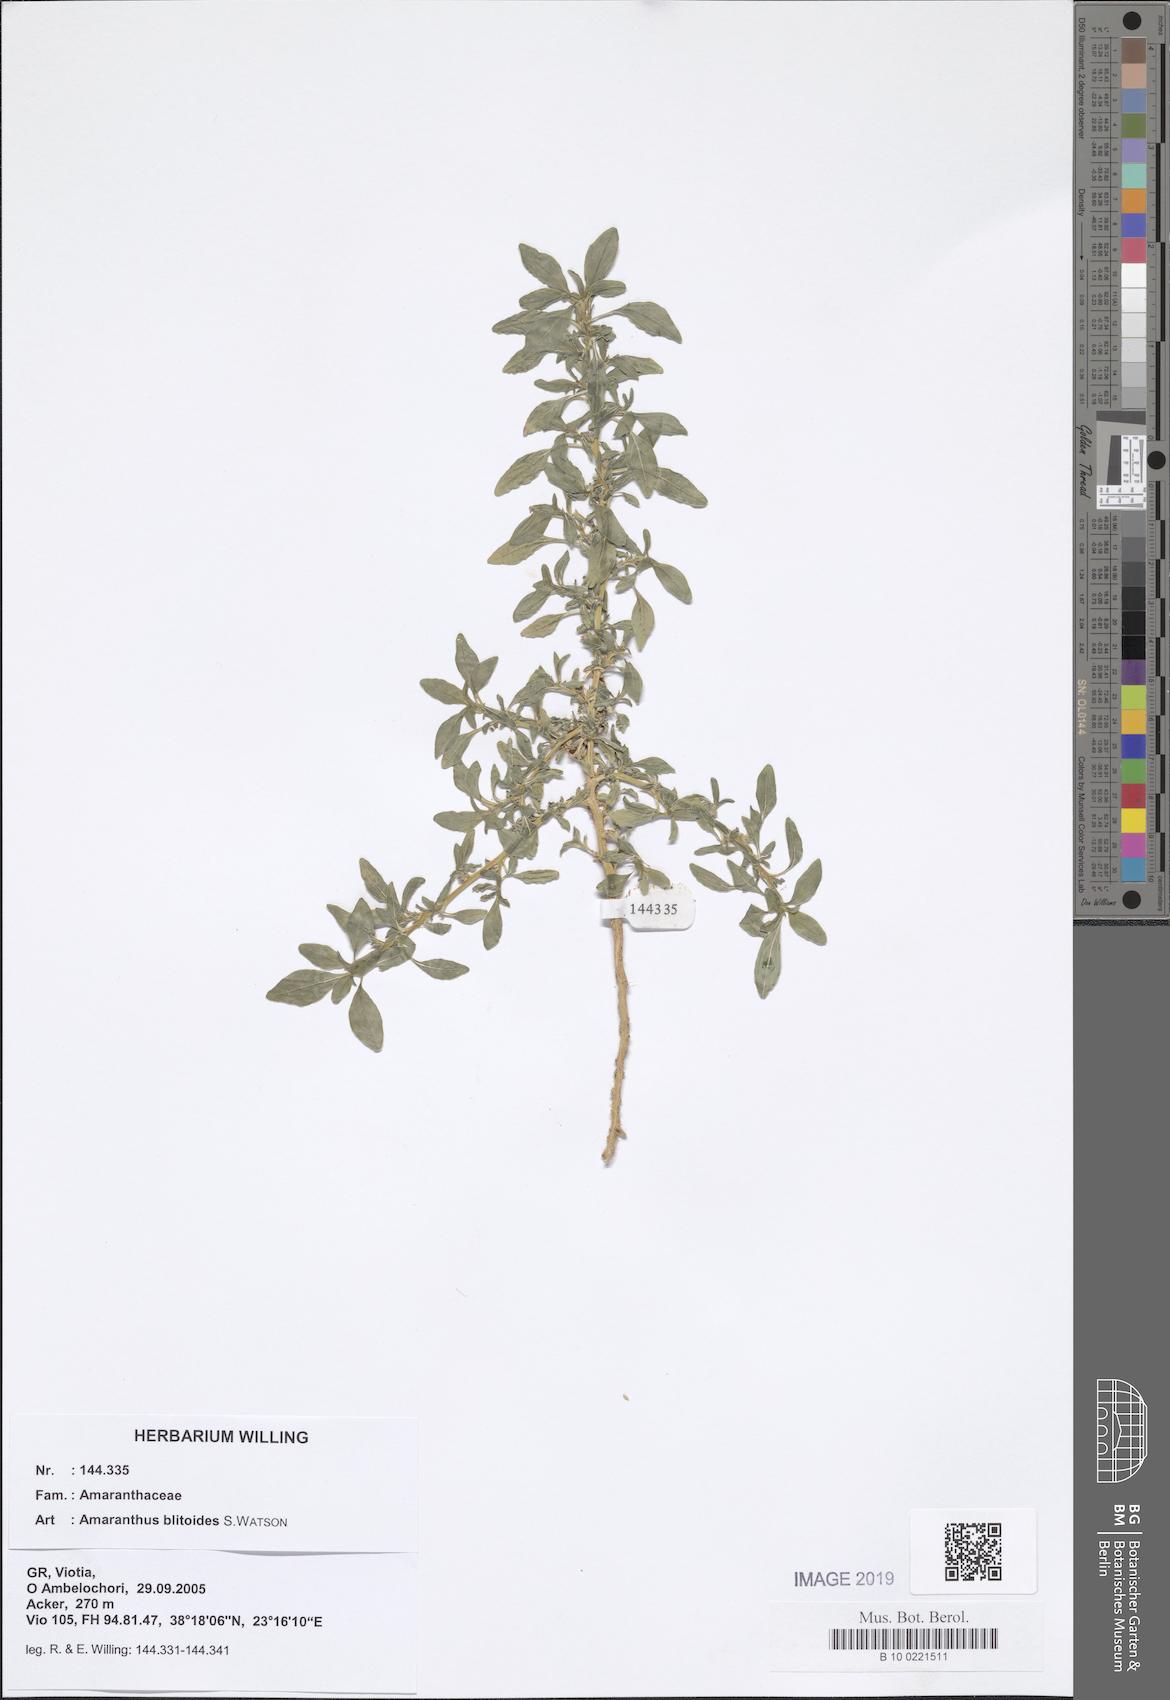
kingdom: Plantae
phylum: Tracheophyta
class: Magnoliopsida
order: Caryophyllales
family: Amaranthaceae
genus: Amaranthus
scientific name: Amaranthus blitoides
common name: Prostrate pigweed
